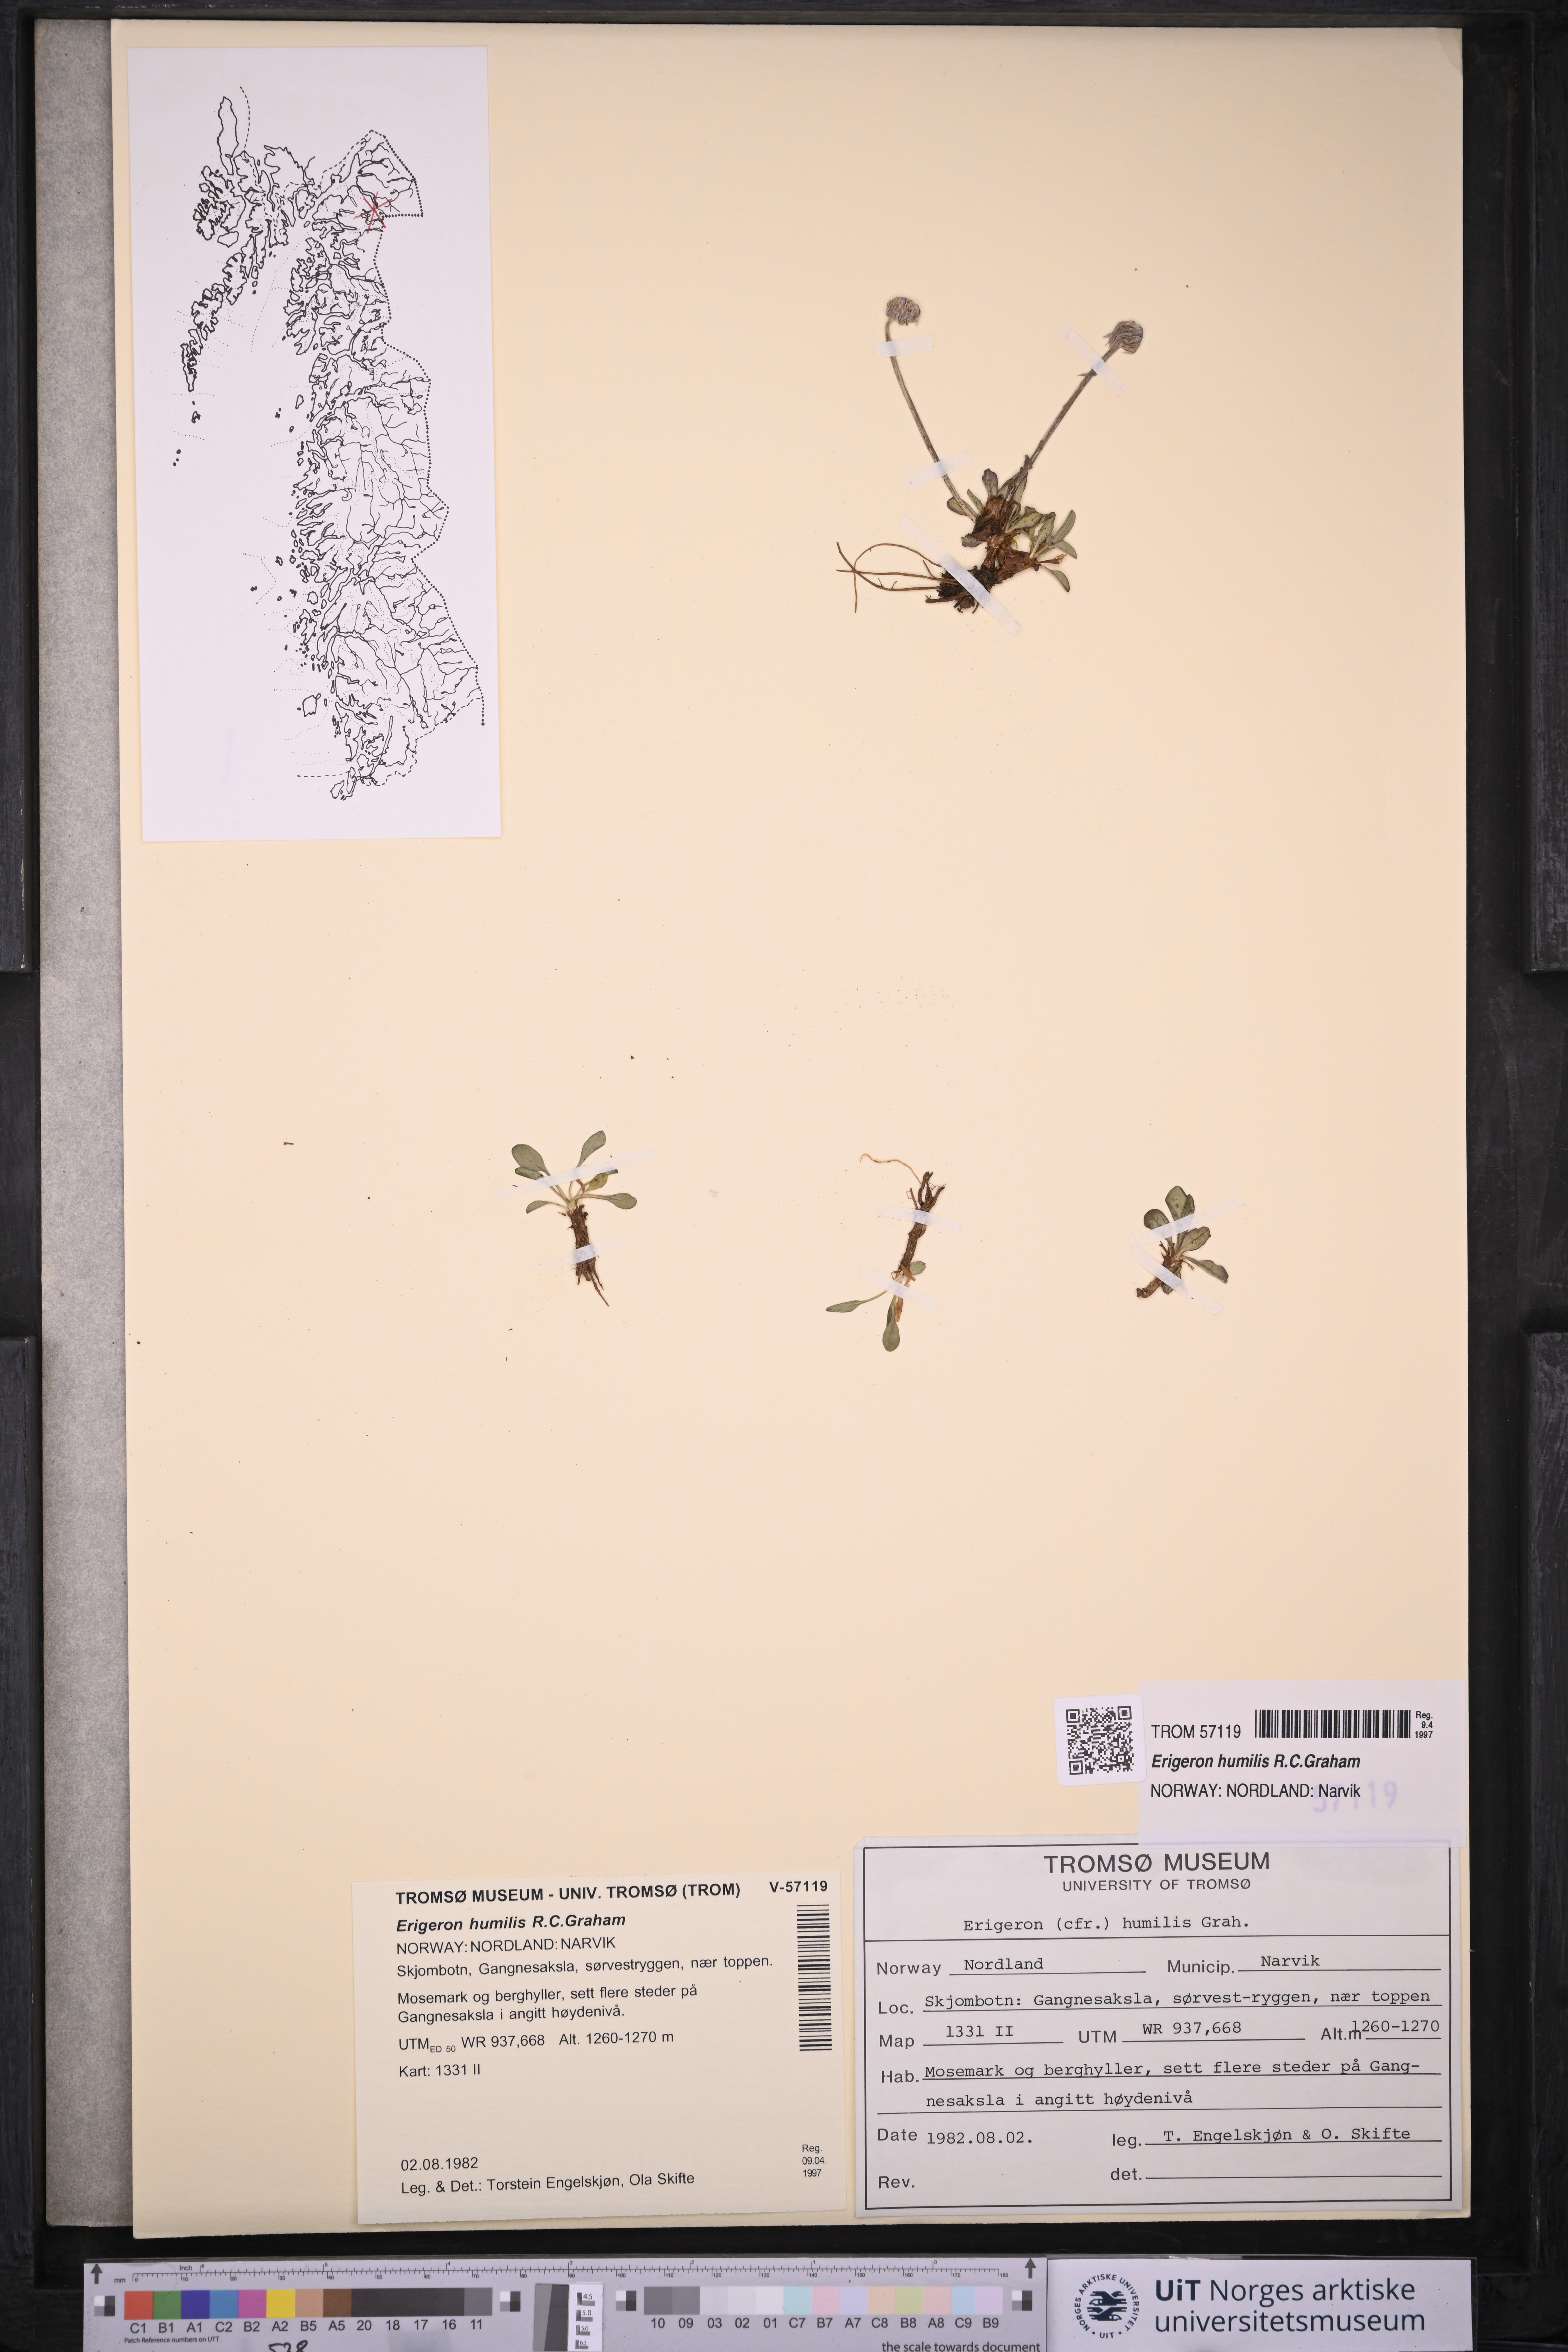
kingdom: Plantae
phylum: Tracheophyta
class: Magnoliopsida
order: Asterales
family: Asteraceae
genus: Erigeron
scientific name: Erigeron humilis
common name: Arctic-alpine fleabane
